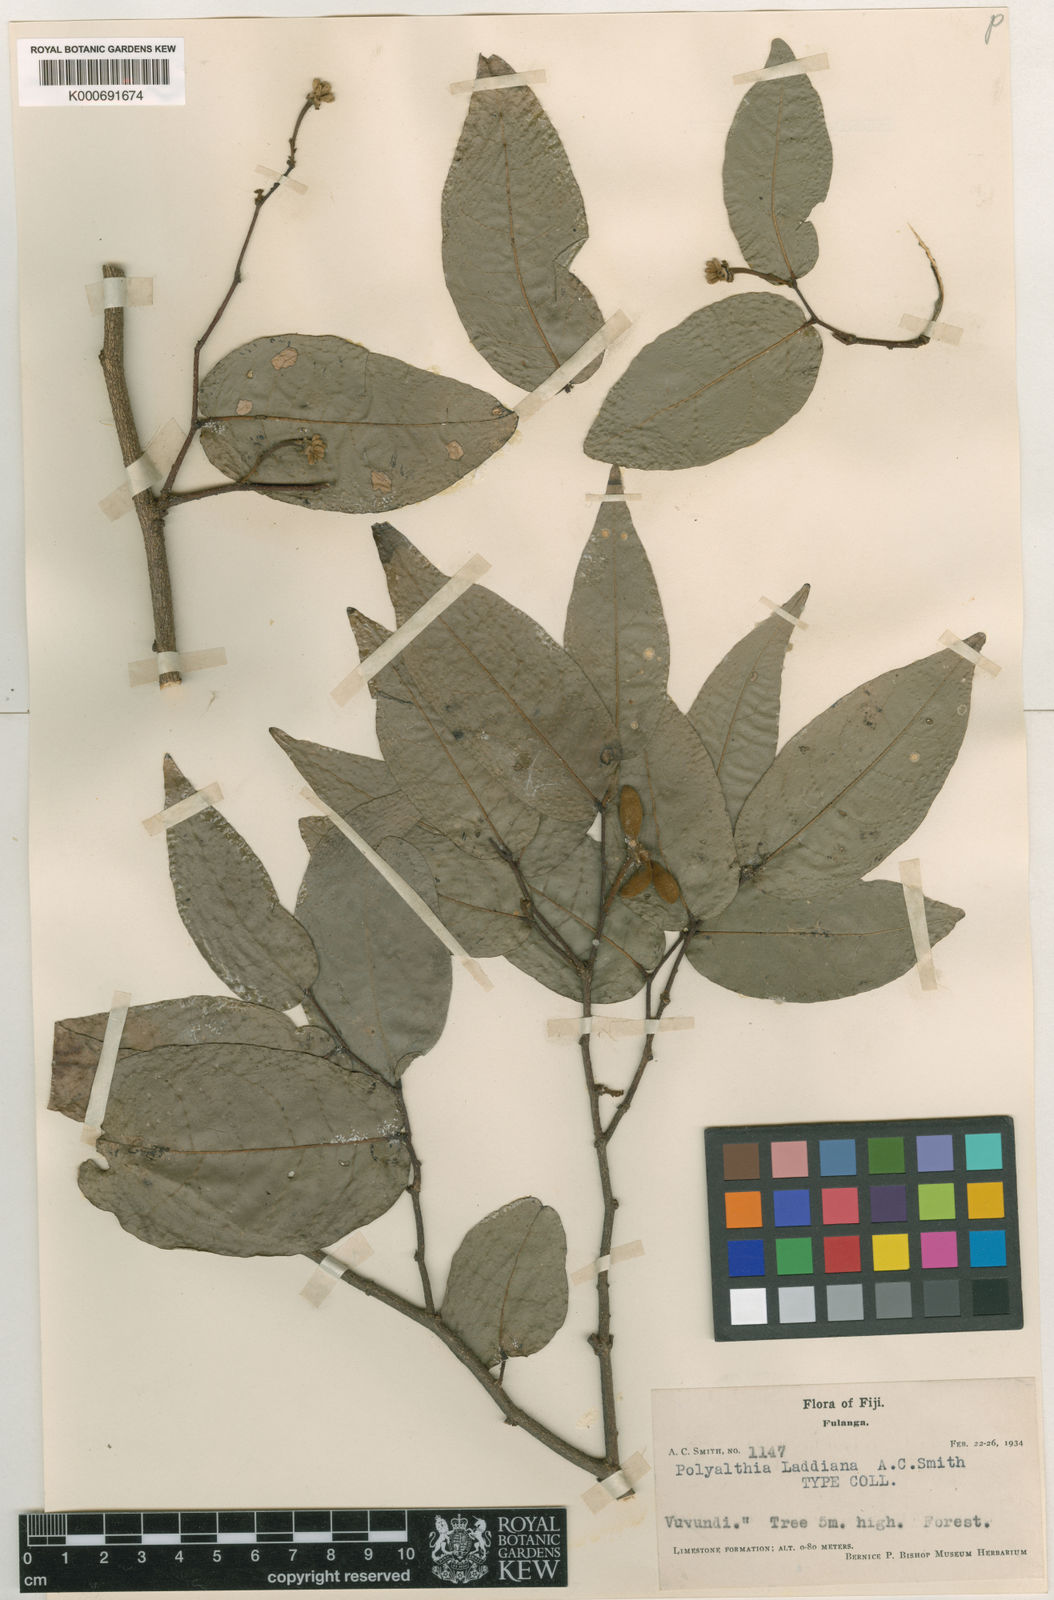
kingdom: Plantae
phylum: Tracheophyta
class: Magnoliopsida
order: Magnoliales
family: Annonaceae
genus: Polyalthia
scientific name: Polyalthia laddiana
